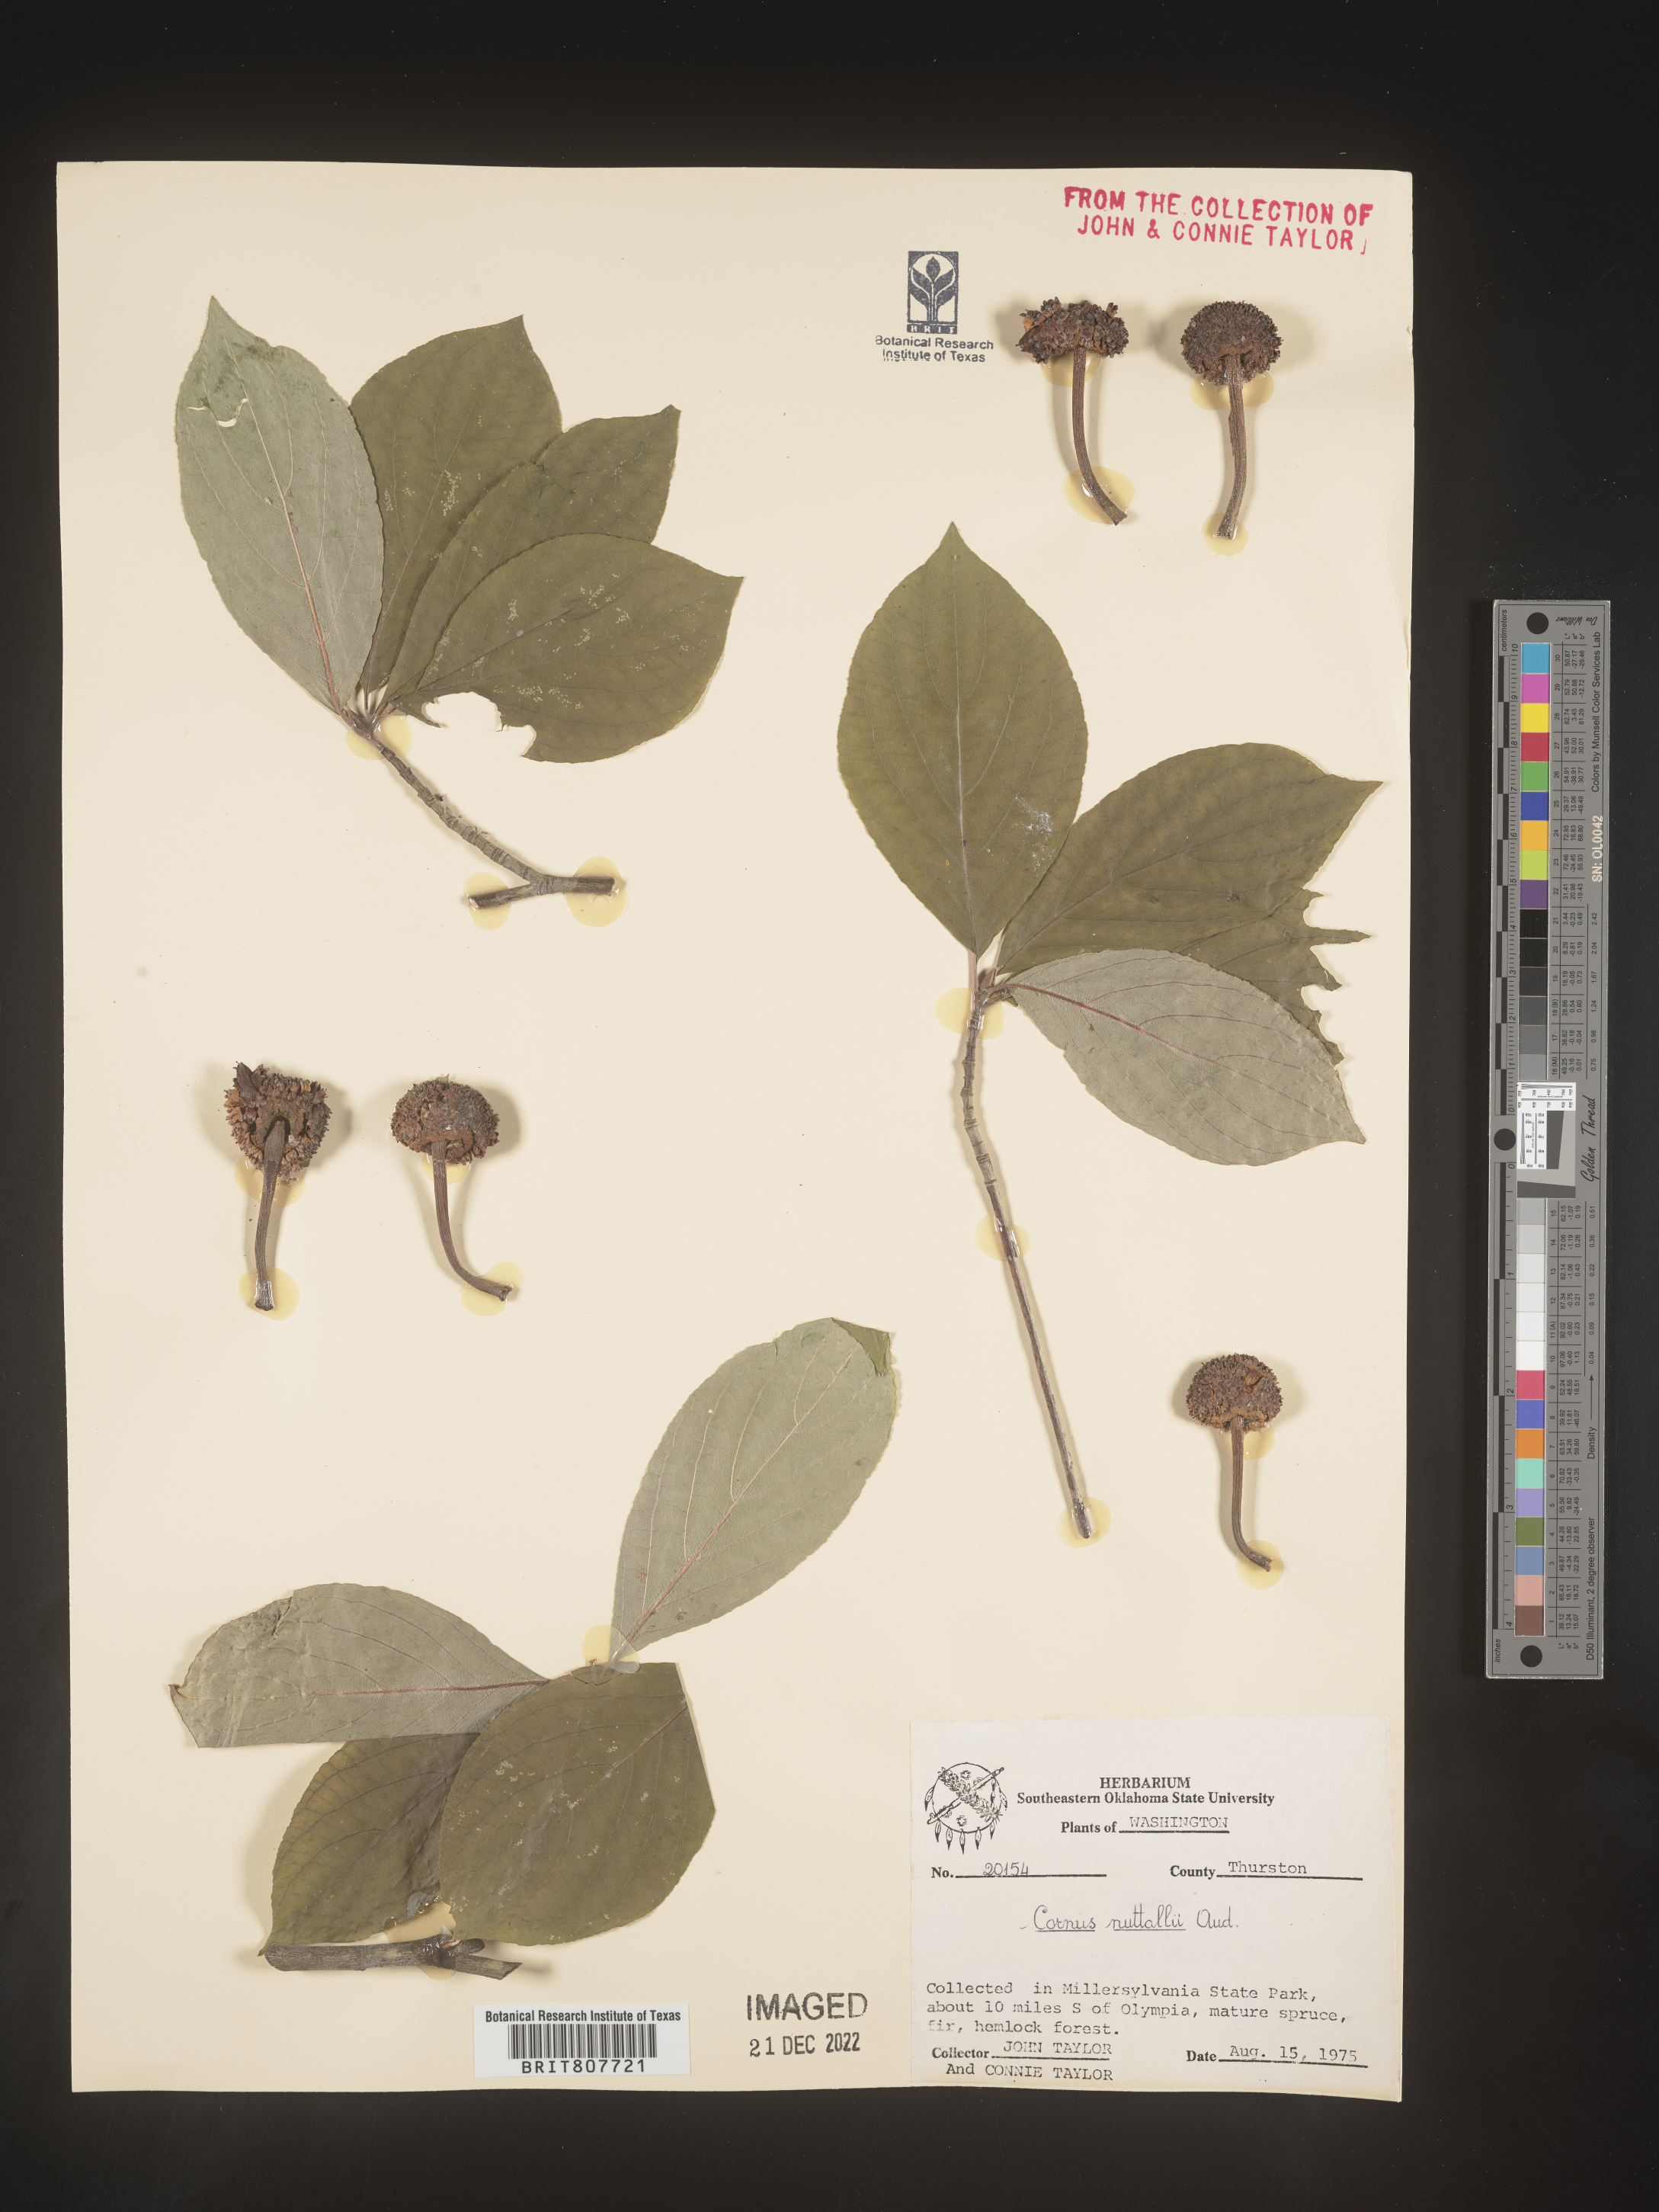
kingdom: Plantae
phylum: Tracheophyta
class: Magnoliopsida
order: Cornales
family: Cornaceae
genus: Cornus
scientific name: Cornus nuttallii
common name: Pacific dogwood
